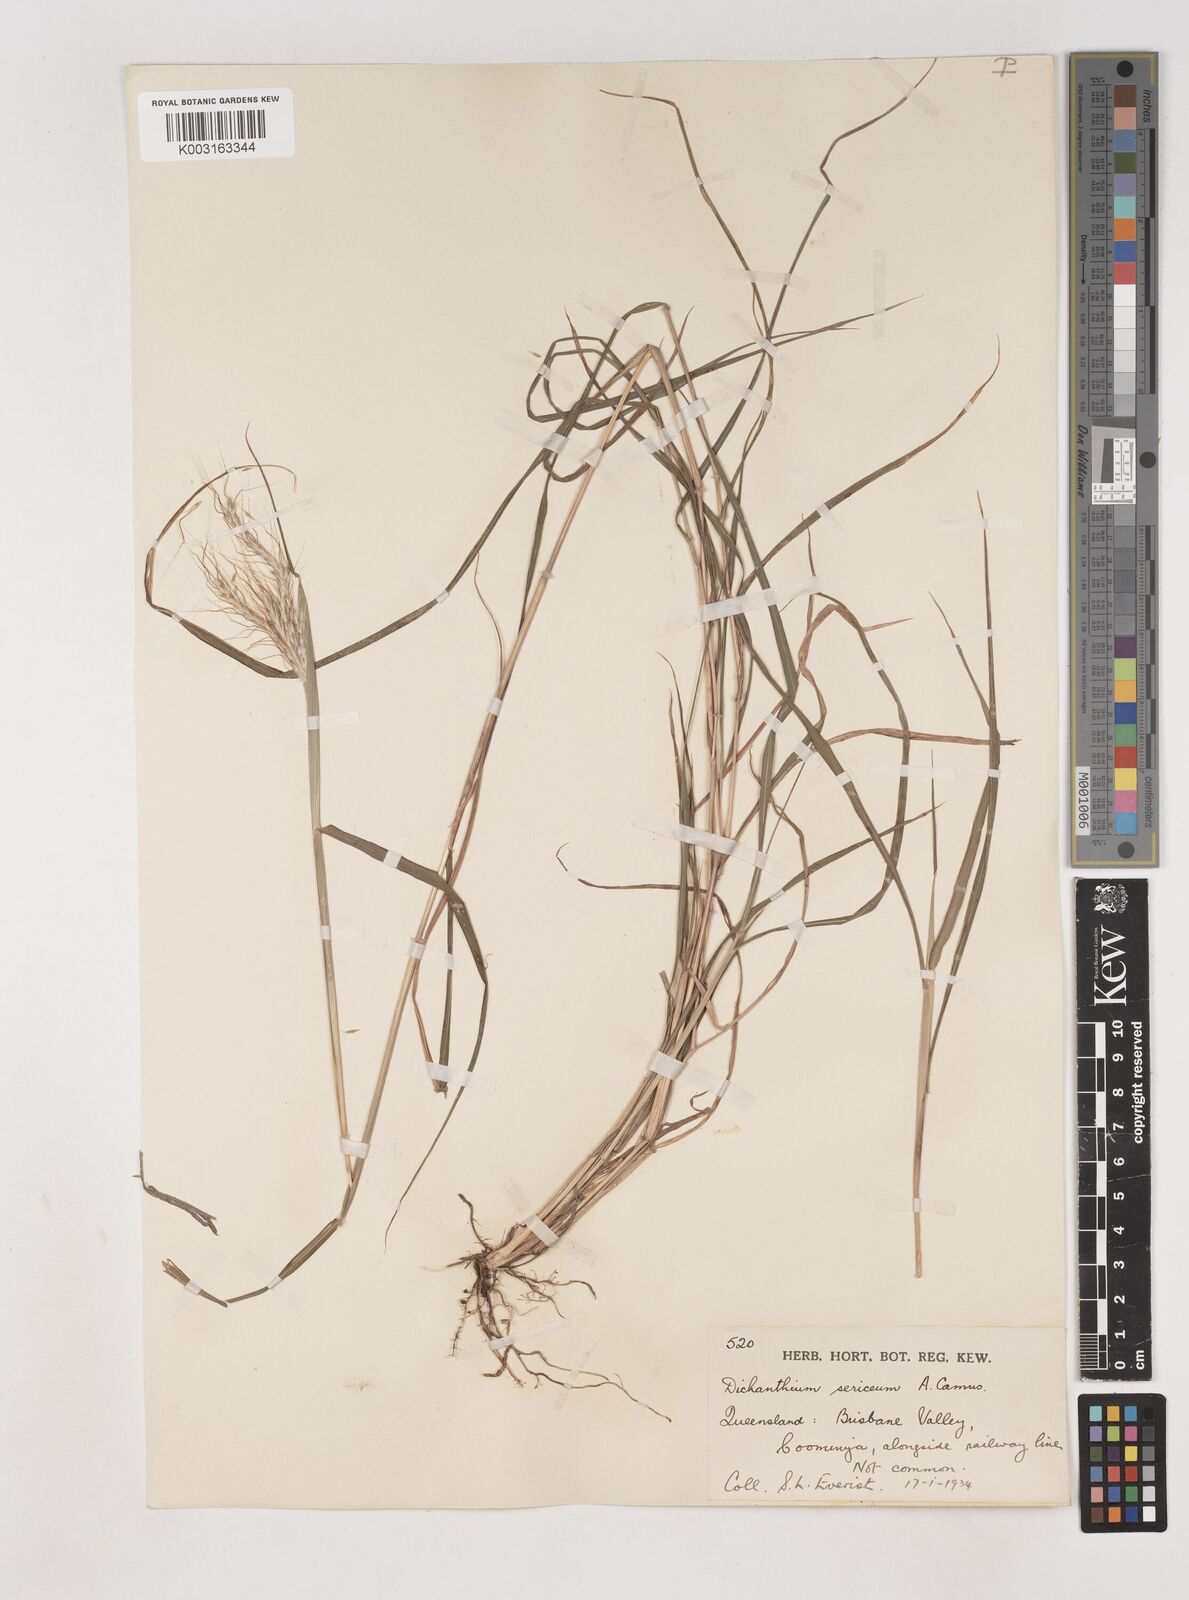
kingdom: Plantae
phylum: Tracheophyta
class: Liliopsida
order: Poales
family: Poaceae
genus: Dichanthium
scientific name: Dichanthium sericeum
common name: Silky bluestem
